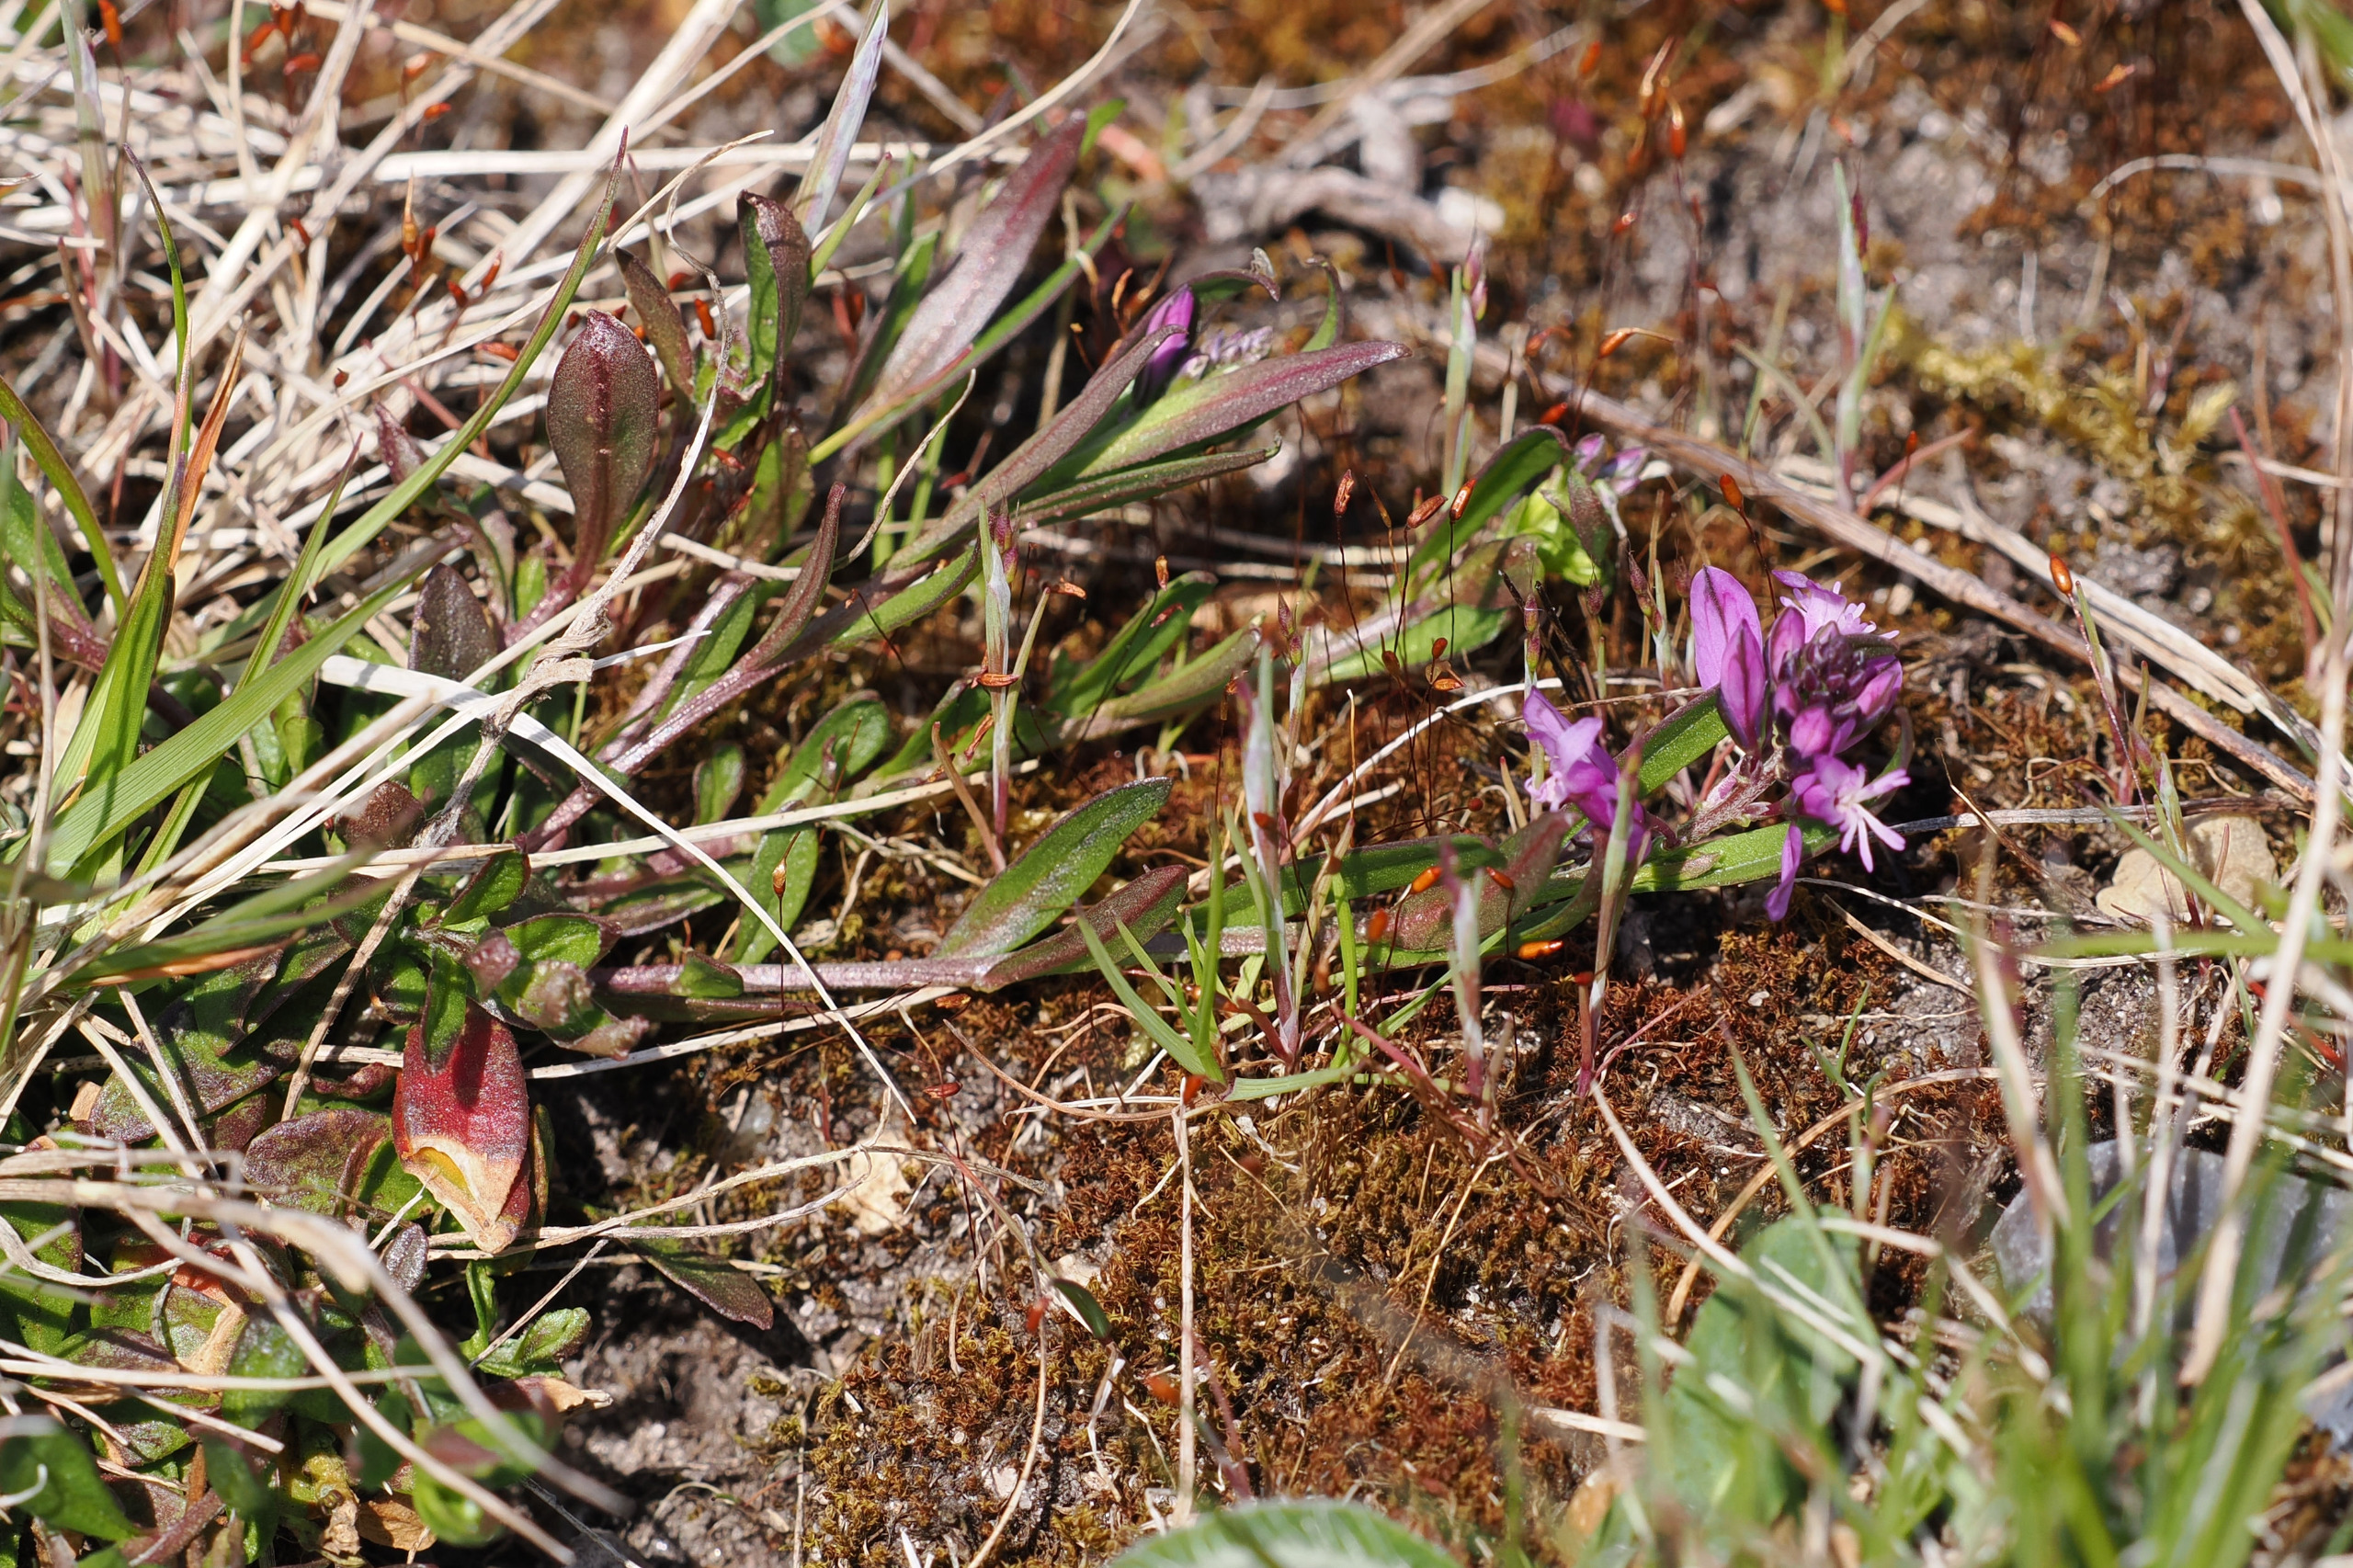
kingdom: Plantae
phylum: Tracheophyta
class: Magnoliopsida
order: Fabales
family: Polygalaceae
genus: Polygala
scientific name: Polygala vulgaris
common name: Almindelig mælkeurt
